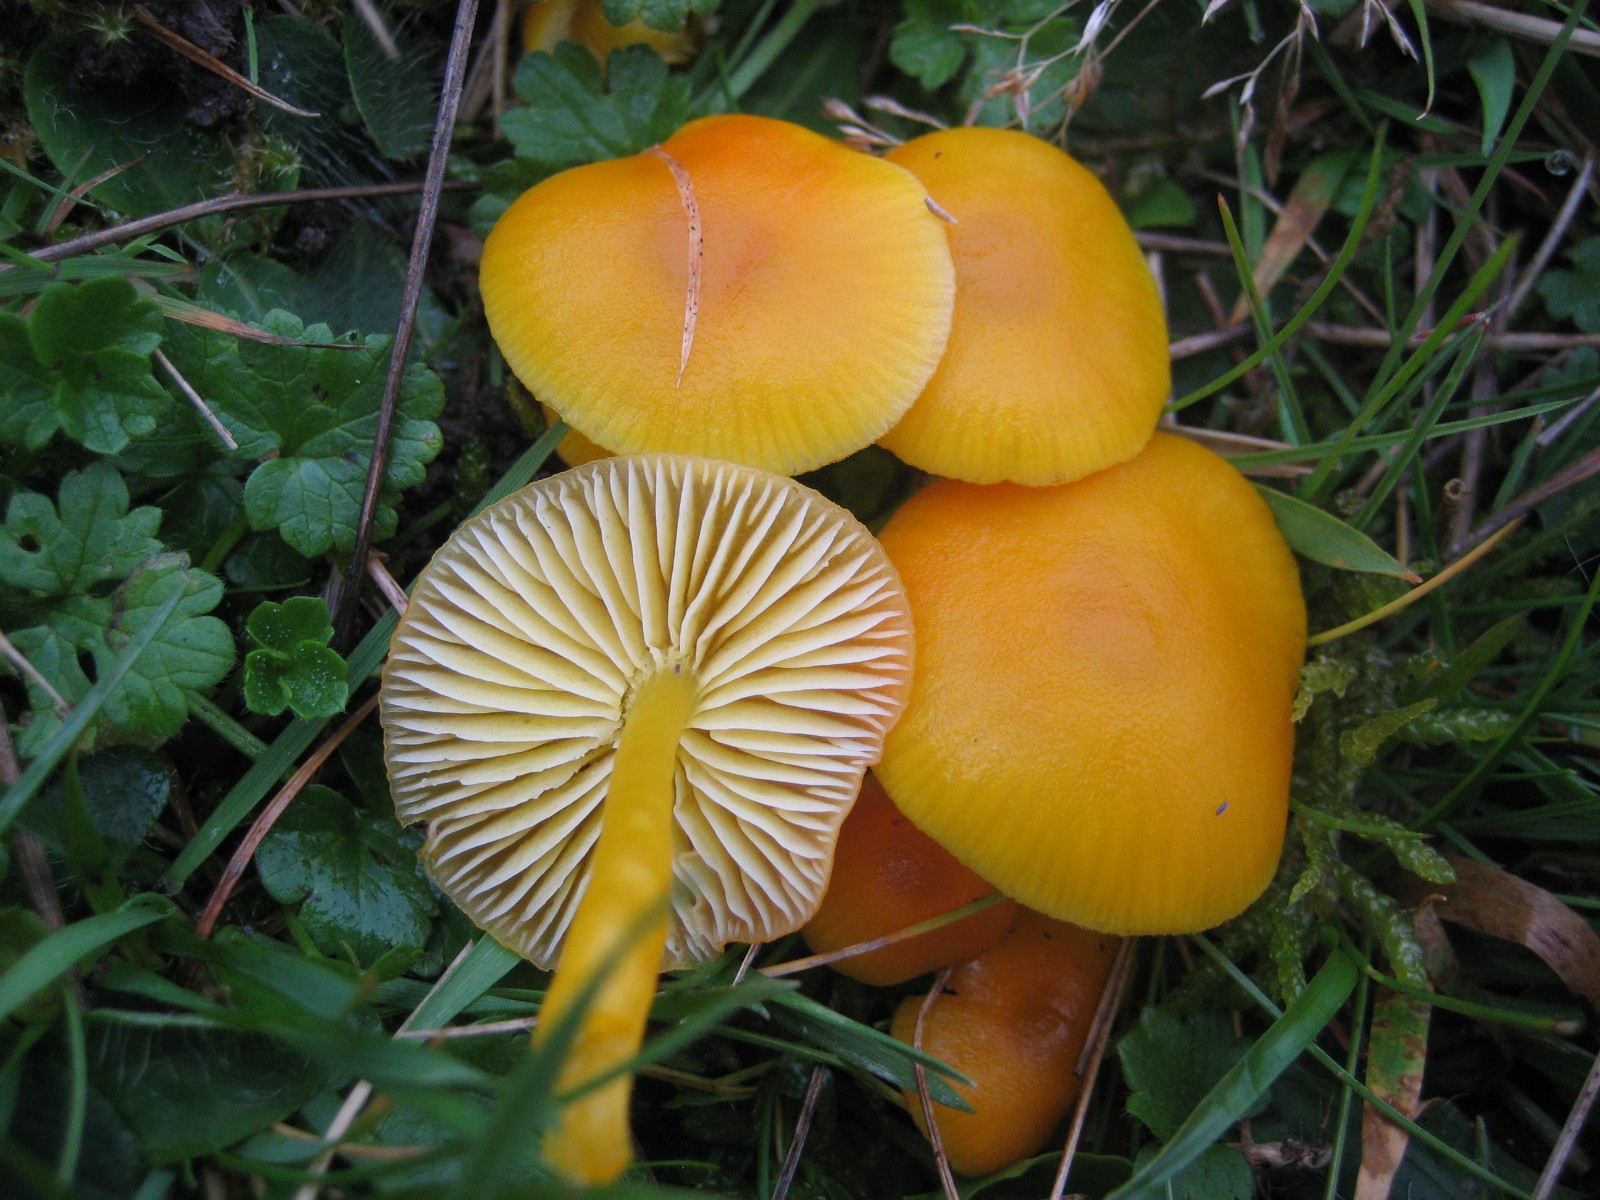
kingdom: Fungi
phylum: Basidiomycota
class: Agaricomycetes
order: Agaricales
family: Hygrophoraceae
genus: Hygrocybe
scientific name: Hygrocybe ceracea
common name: voksgul vokshat
